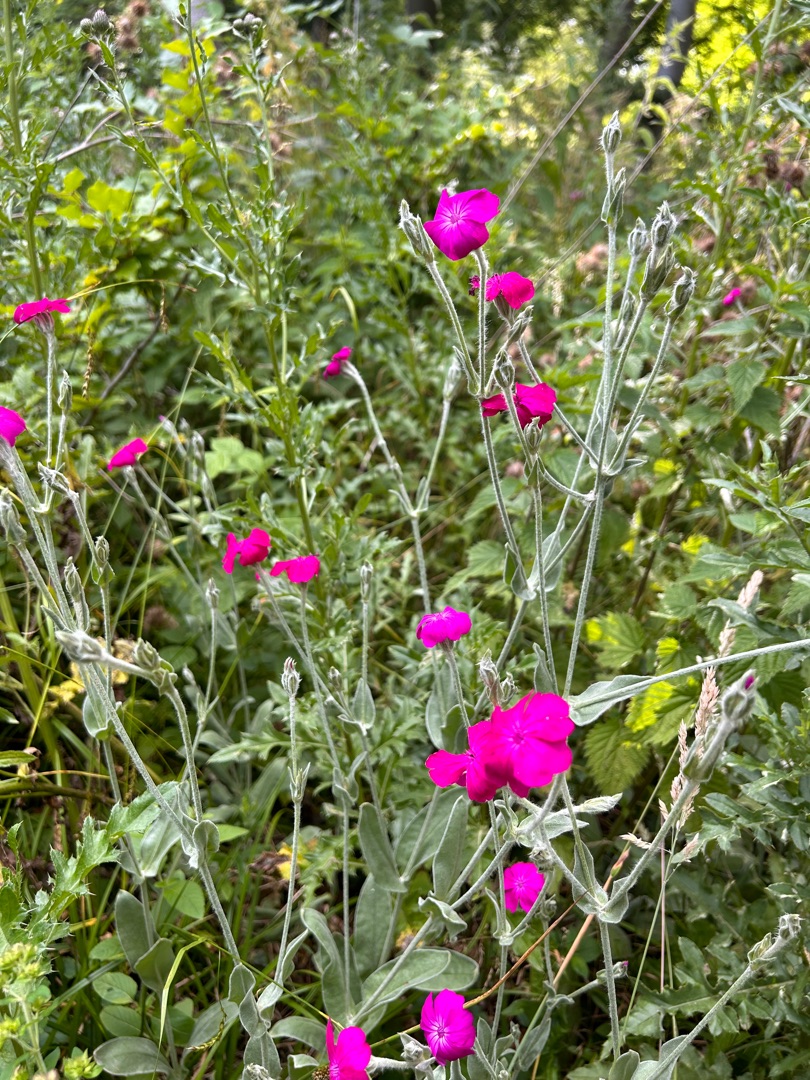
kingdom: Plantae
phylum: Tracheophyta
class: Magnoliopsida
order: Caryophyllales
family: Caryophyllaceae
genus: Silene
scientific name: Silene coronaria
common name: Fiksernellike
